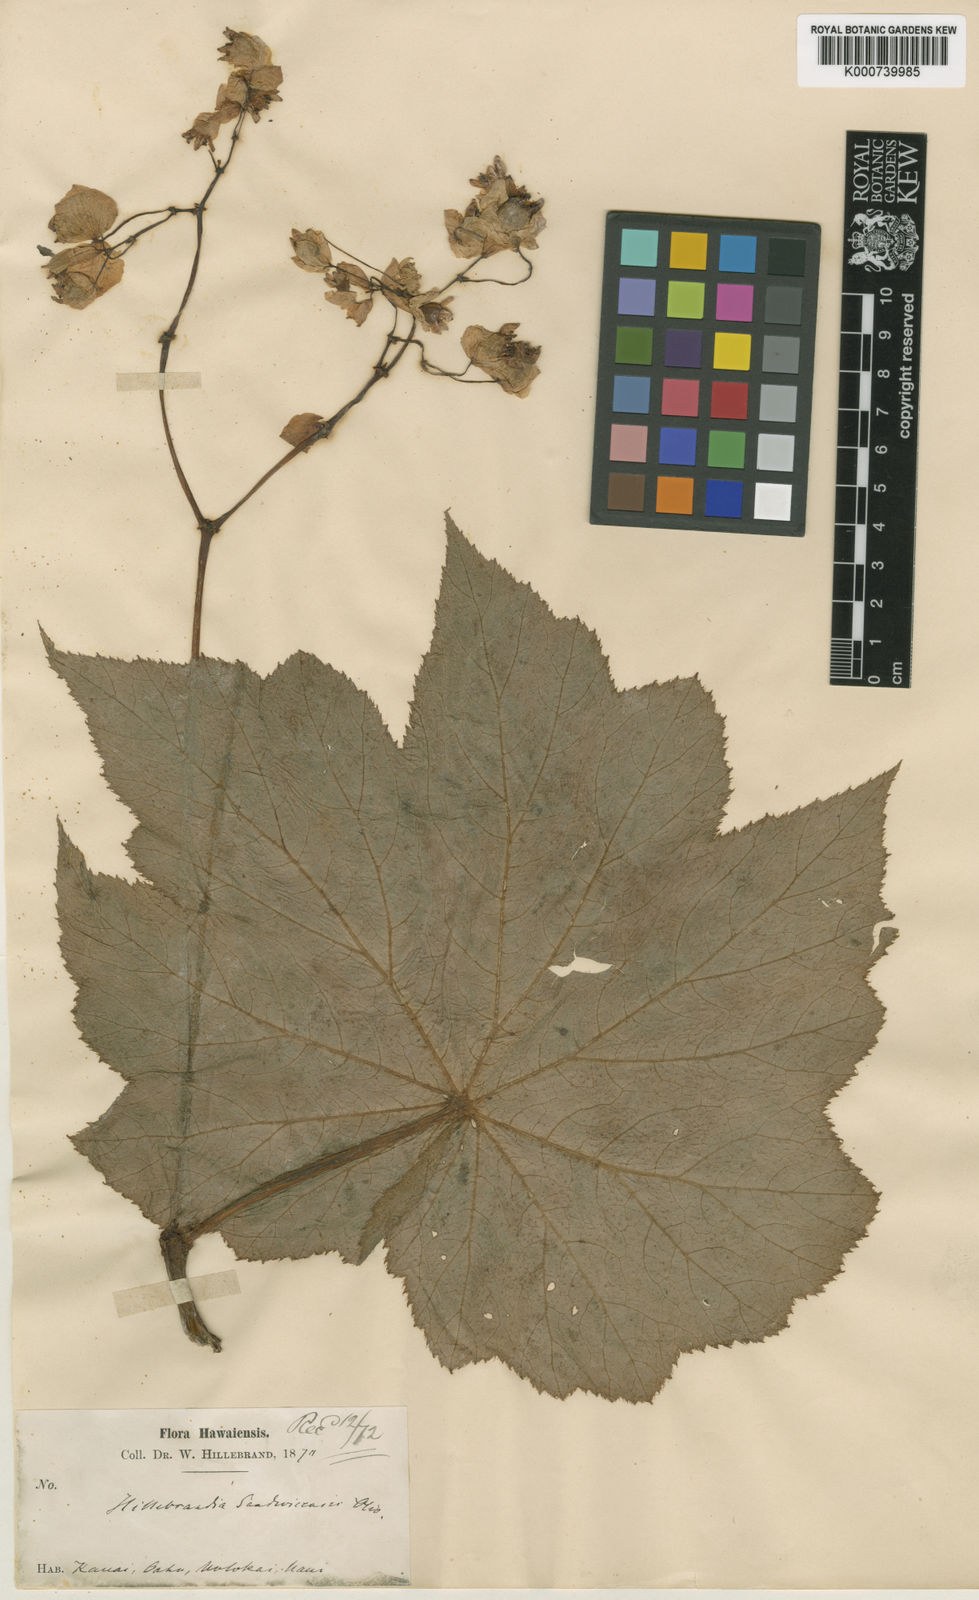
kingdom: Plantae
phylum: Tracheophyta
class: Magnoliopsida
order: Cucurbitales
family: Begoniaceae
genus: Hillebrandia
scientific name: Hillebrandia sandwicensis
